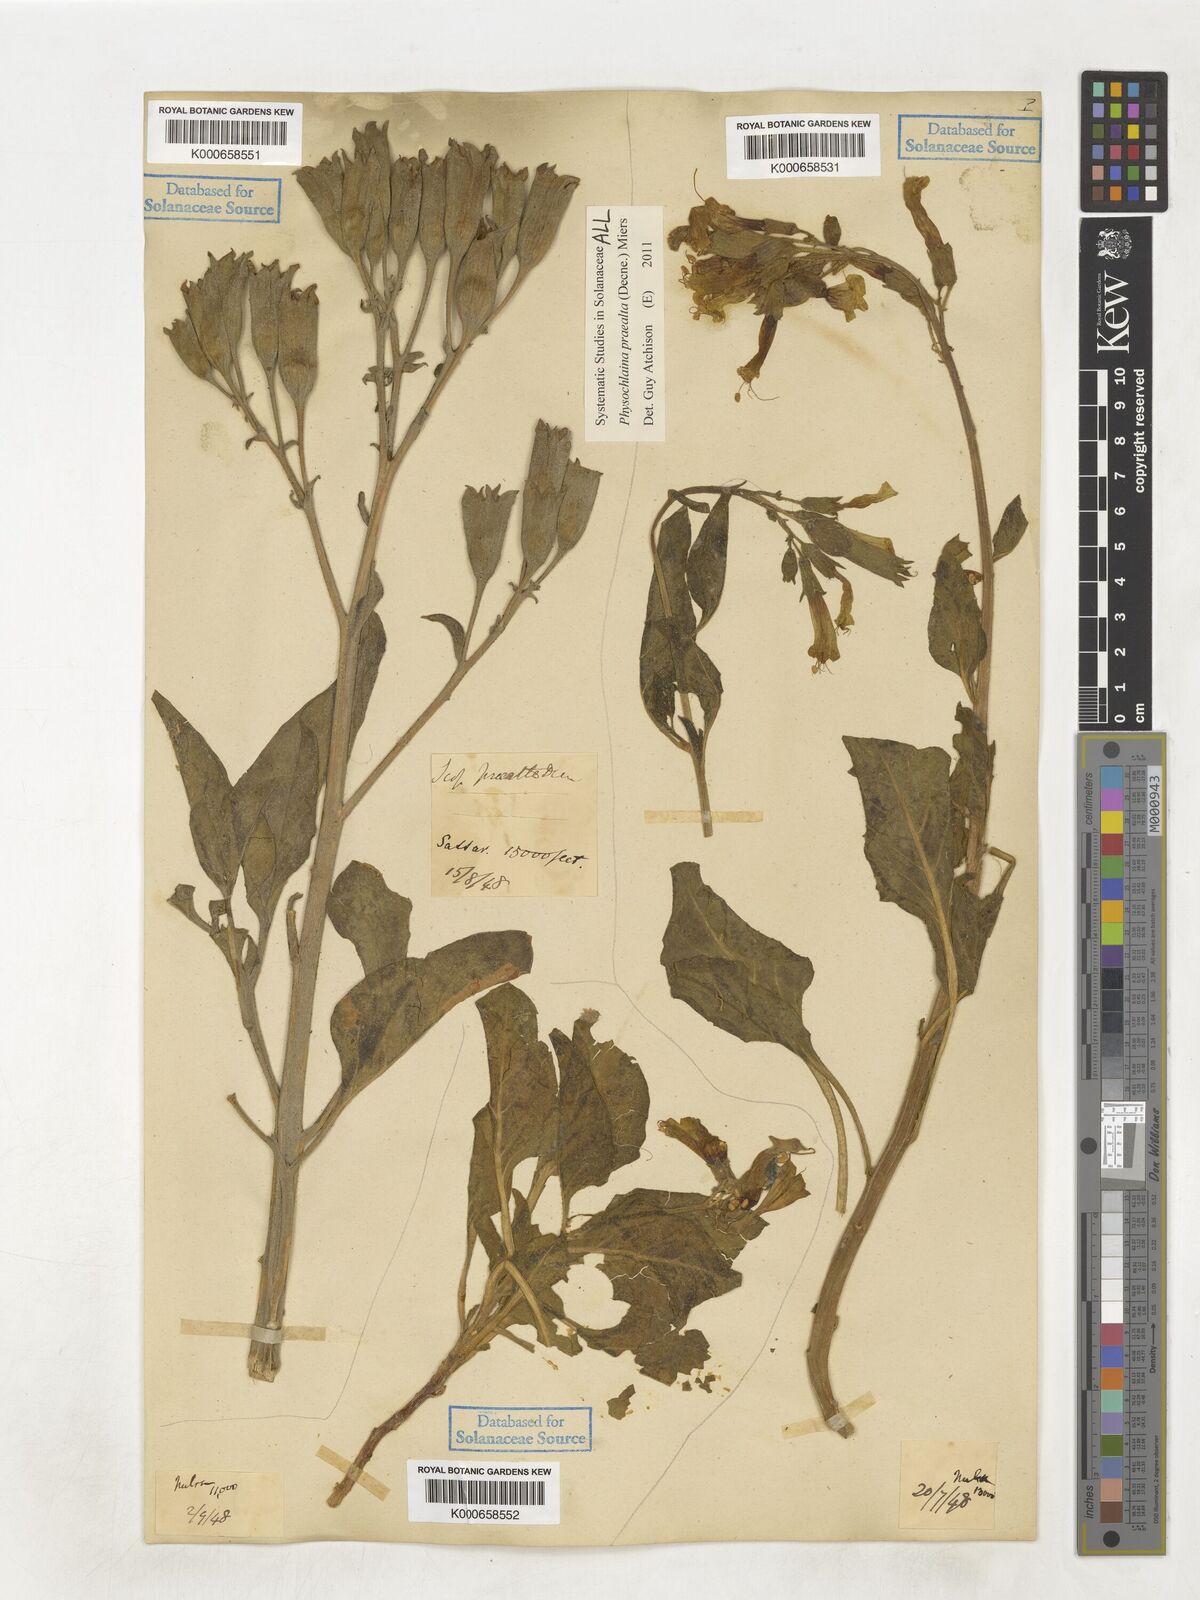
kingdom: Plantae
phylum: Tracheophyta
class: Magnoliopsida
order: Solanales
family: Solanaceae
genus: Physochlaina
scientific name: Physochlaina praealta
